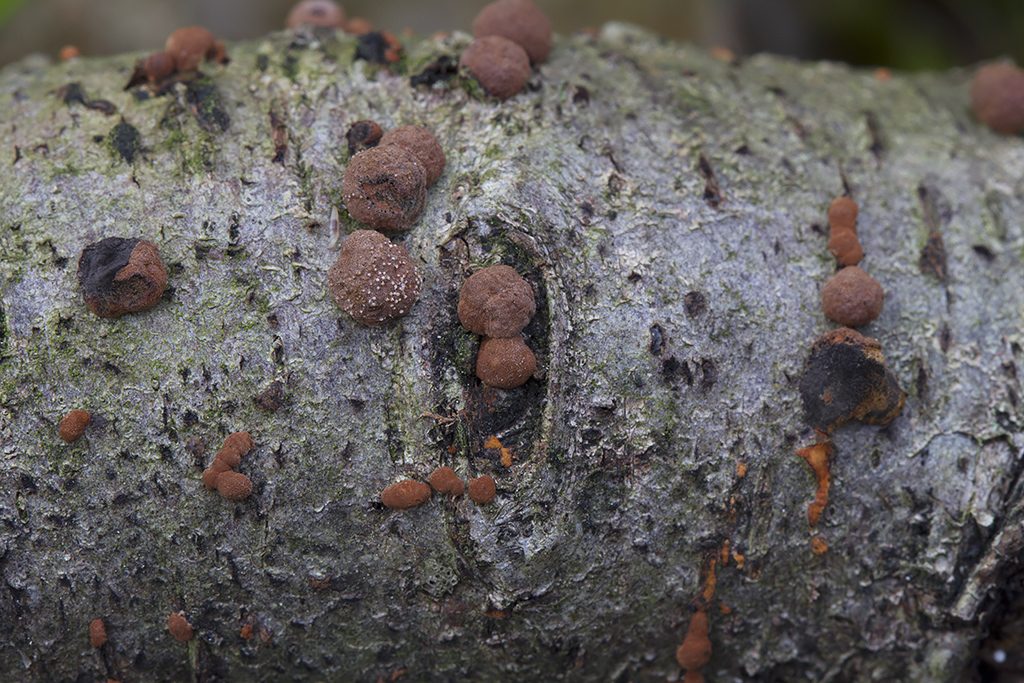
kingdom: Fungi
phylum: Ascomycota
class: Sordariomycetes
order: Xylariales
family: Hypoxylaceae
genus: Hypoxylon
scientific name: Hypoxylon howeanum
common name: halvkugleformet kulbær
